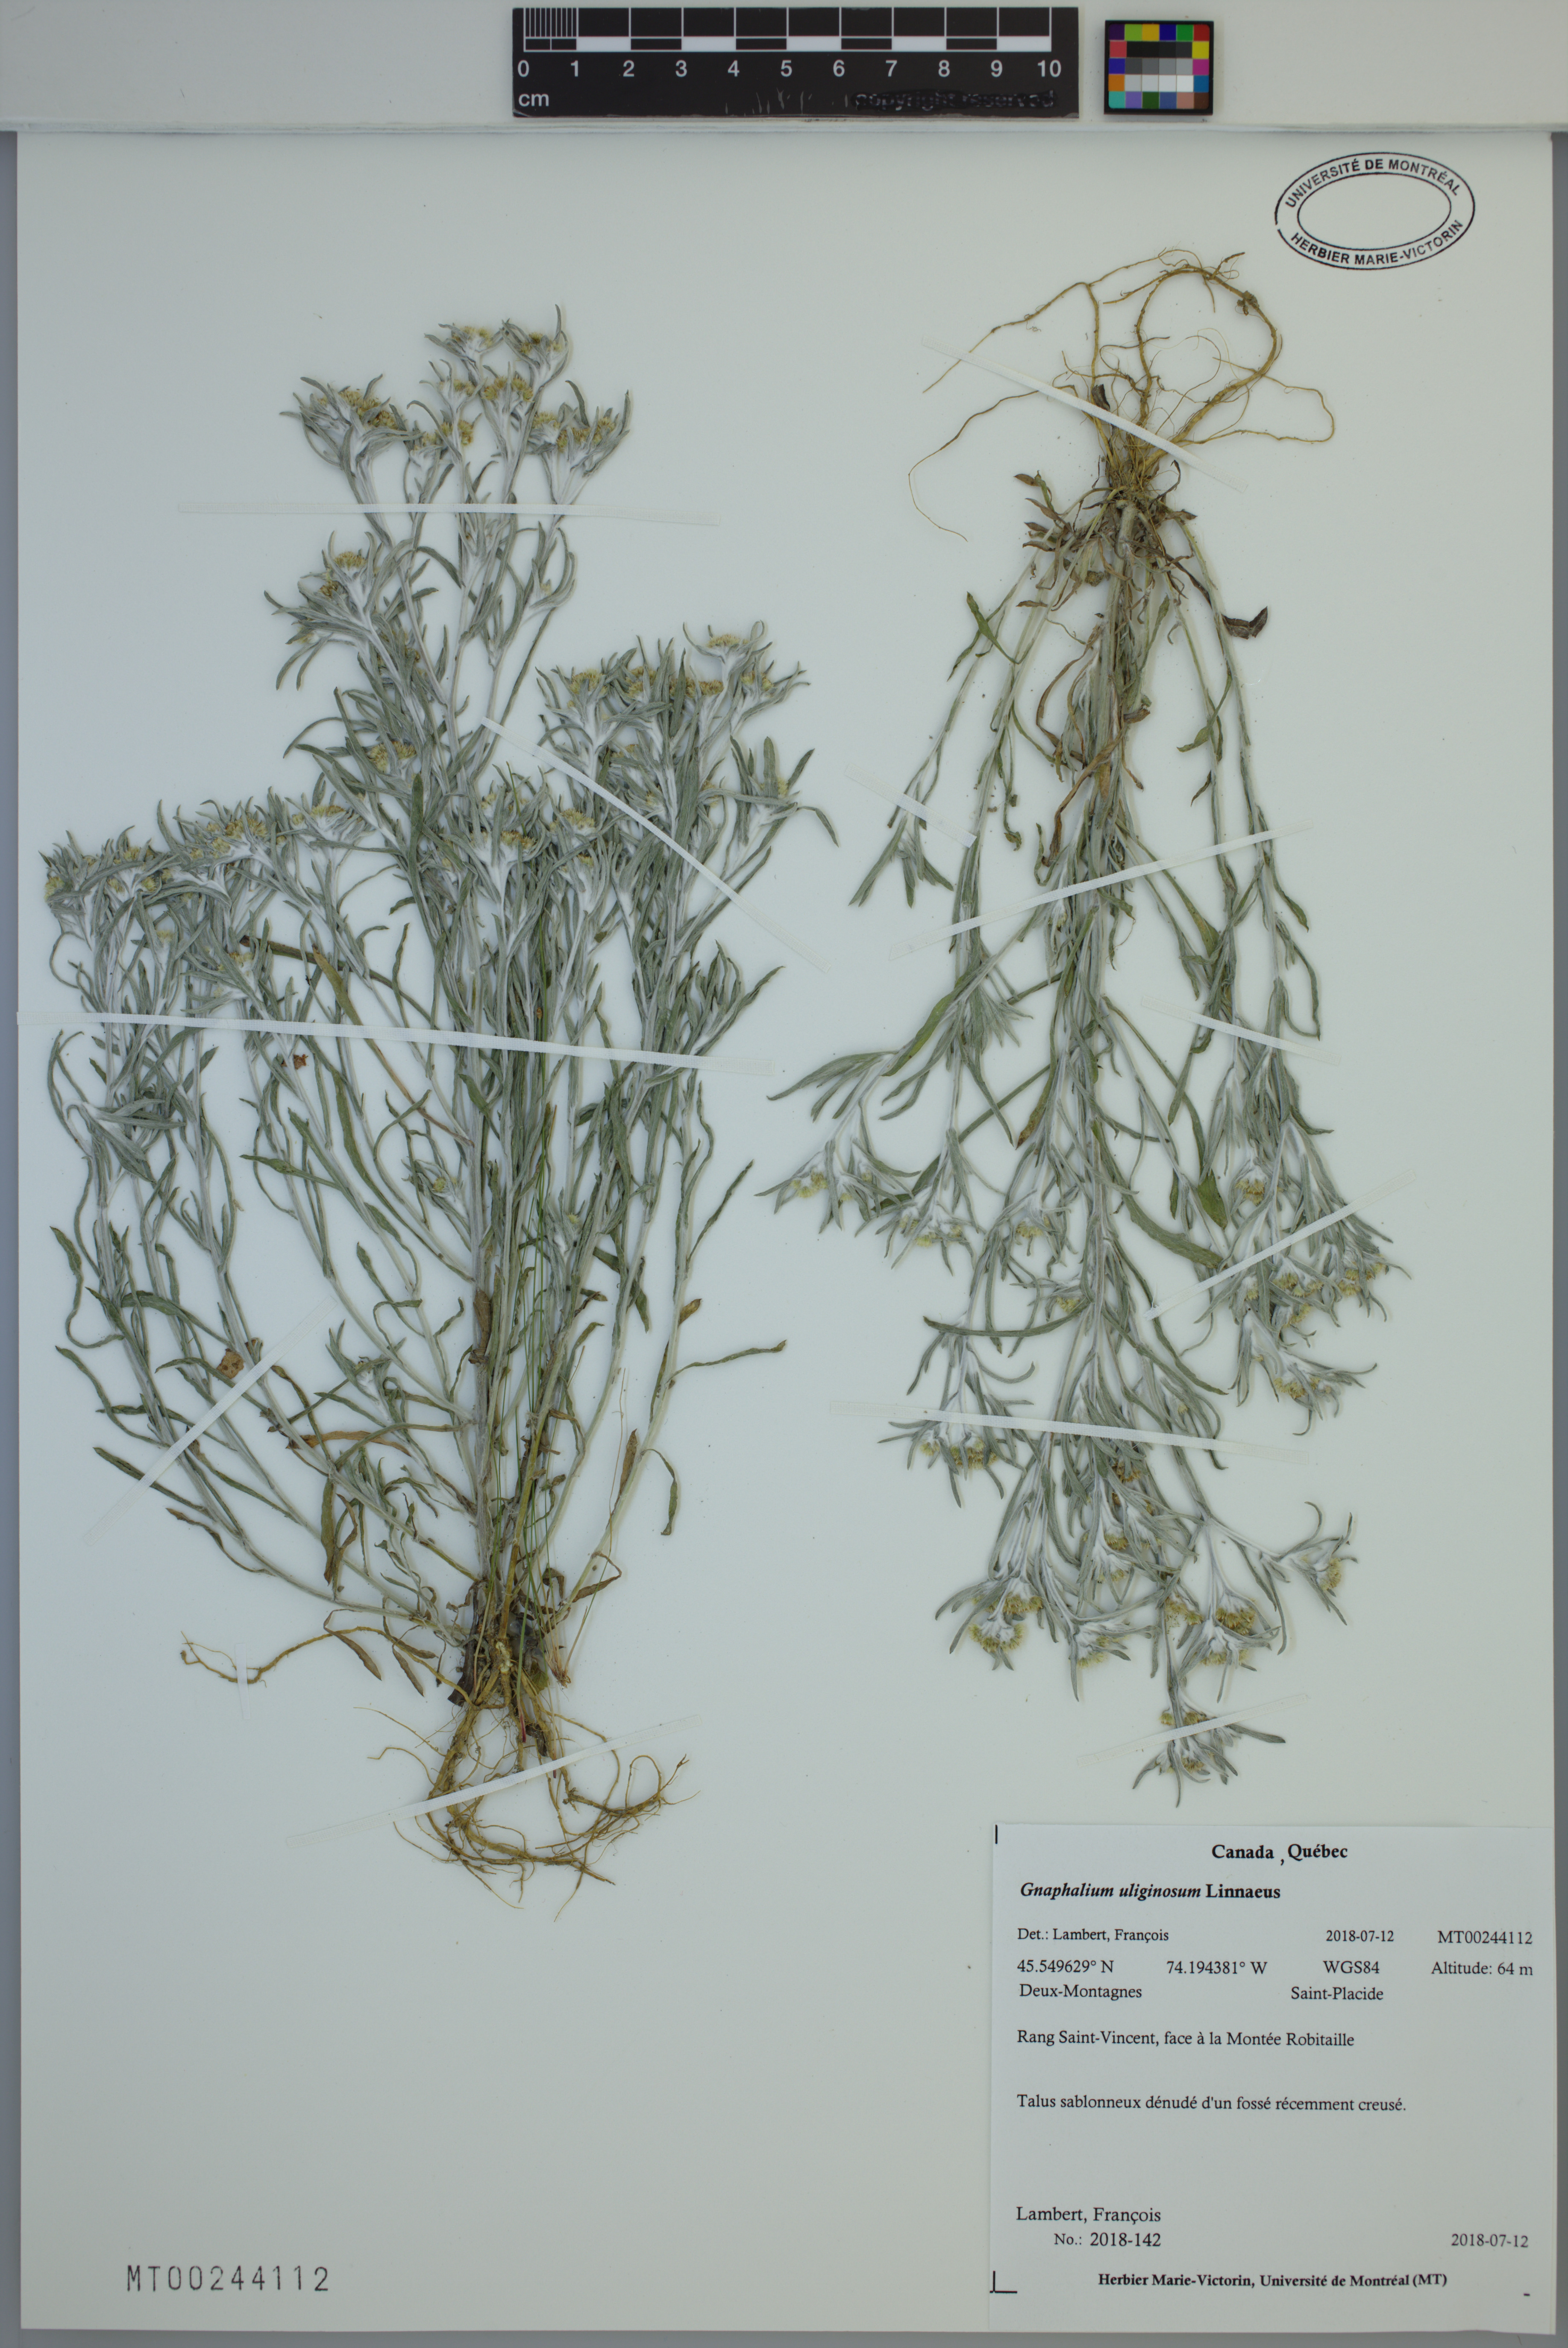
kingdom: Plantae
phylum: Tracheophyta
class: Magnoliopsida
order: Asterales
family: Asteraceae
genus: Gnaphalium
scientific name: Gnaphalium uliginosum
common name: Marsh cudweed
